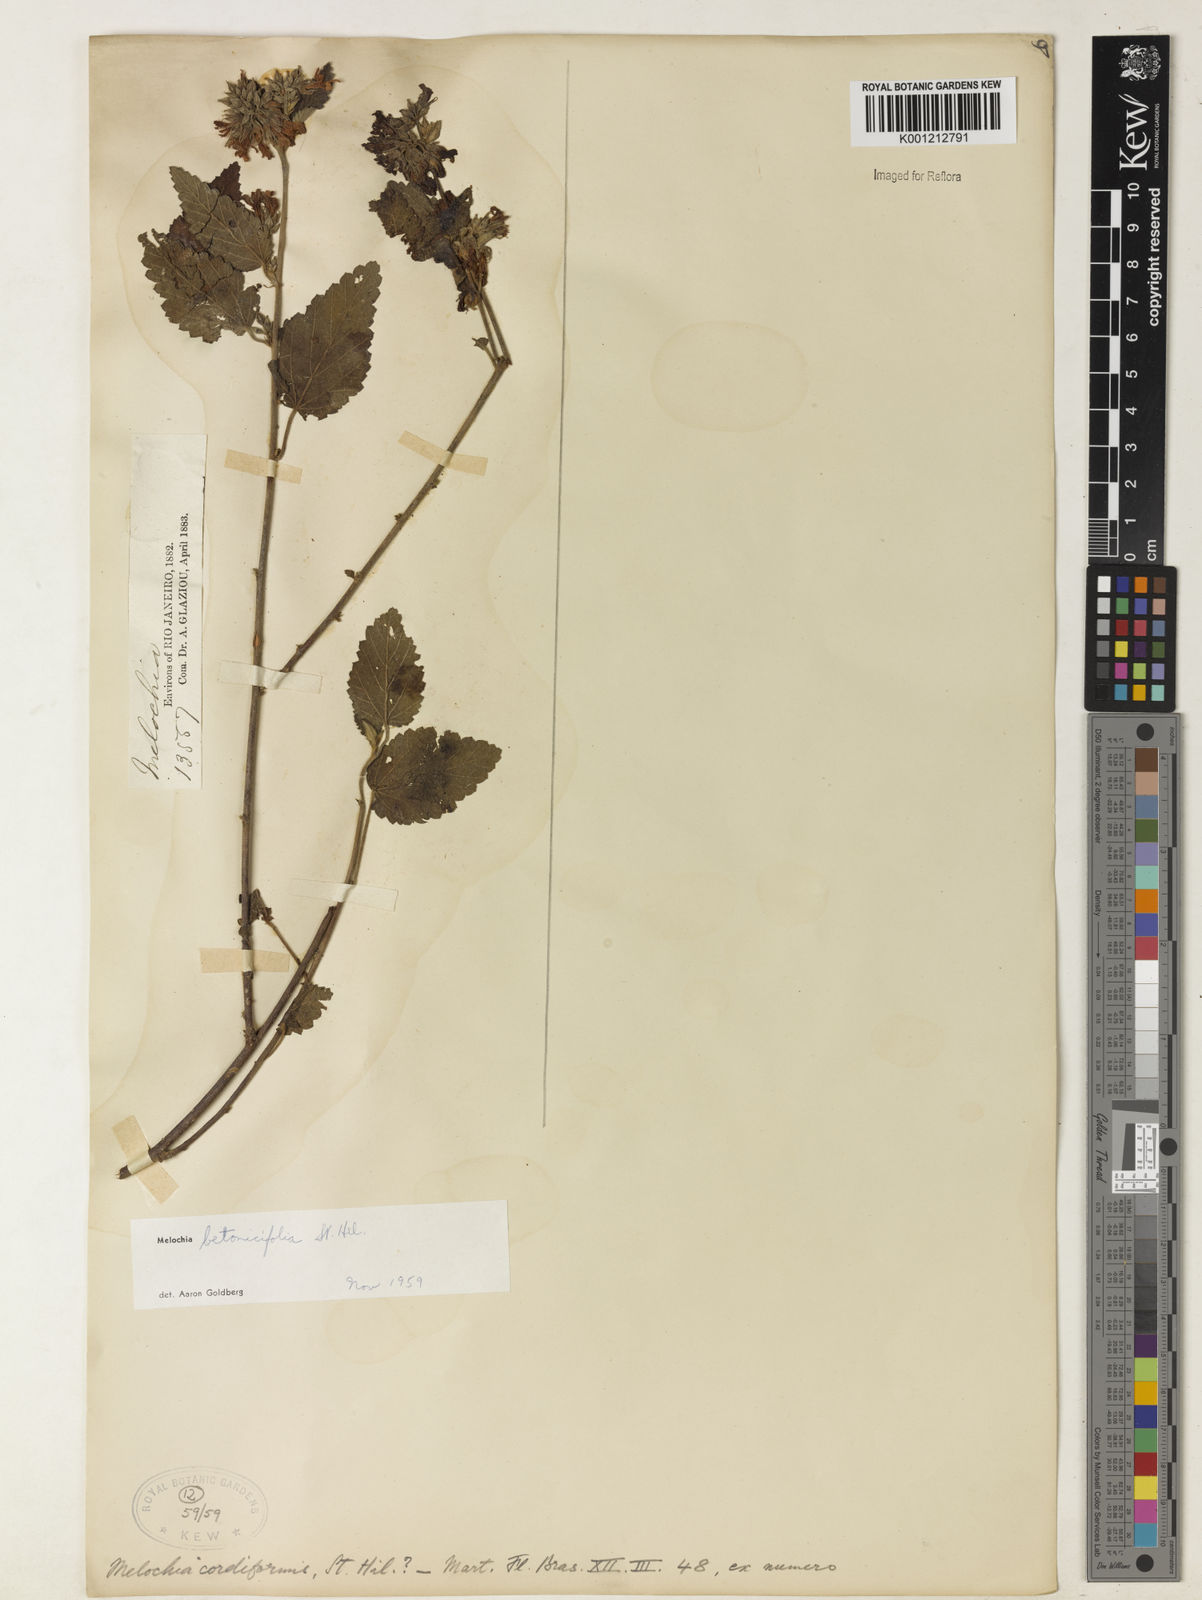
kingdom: Plantae
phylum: Tracheophyta
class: Magnoliopsida
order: Malvales
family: Malvaceae
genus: Melochia
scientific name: Melochia betonicifolia
